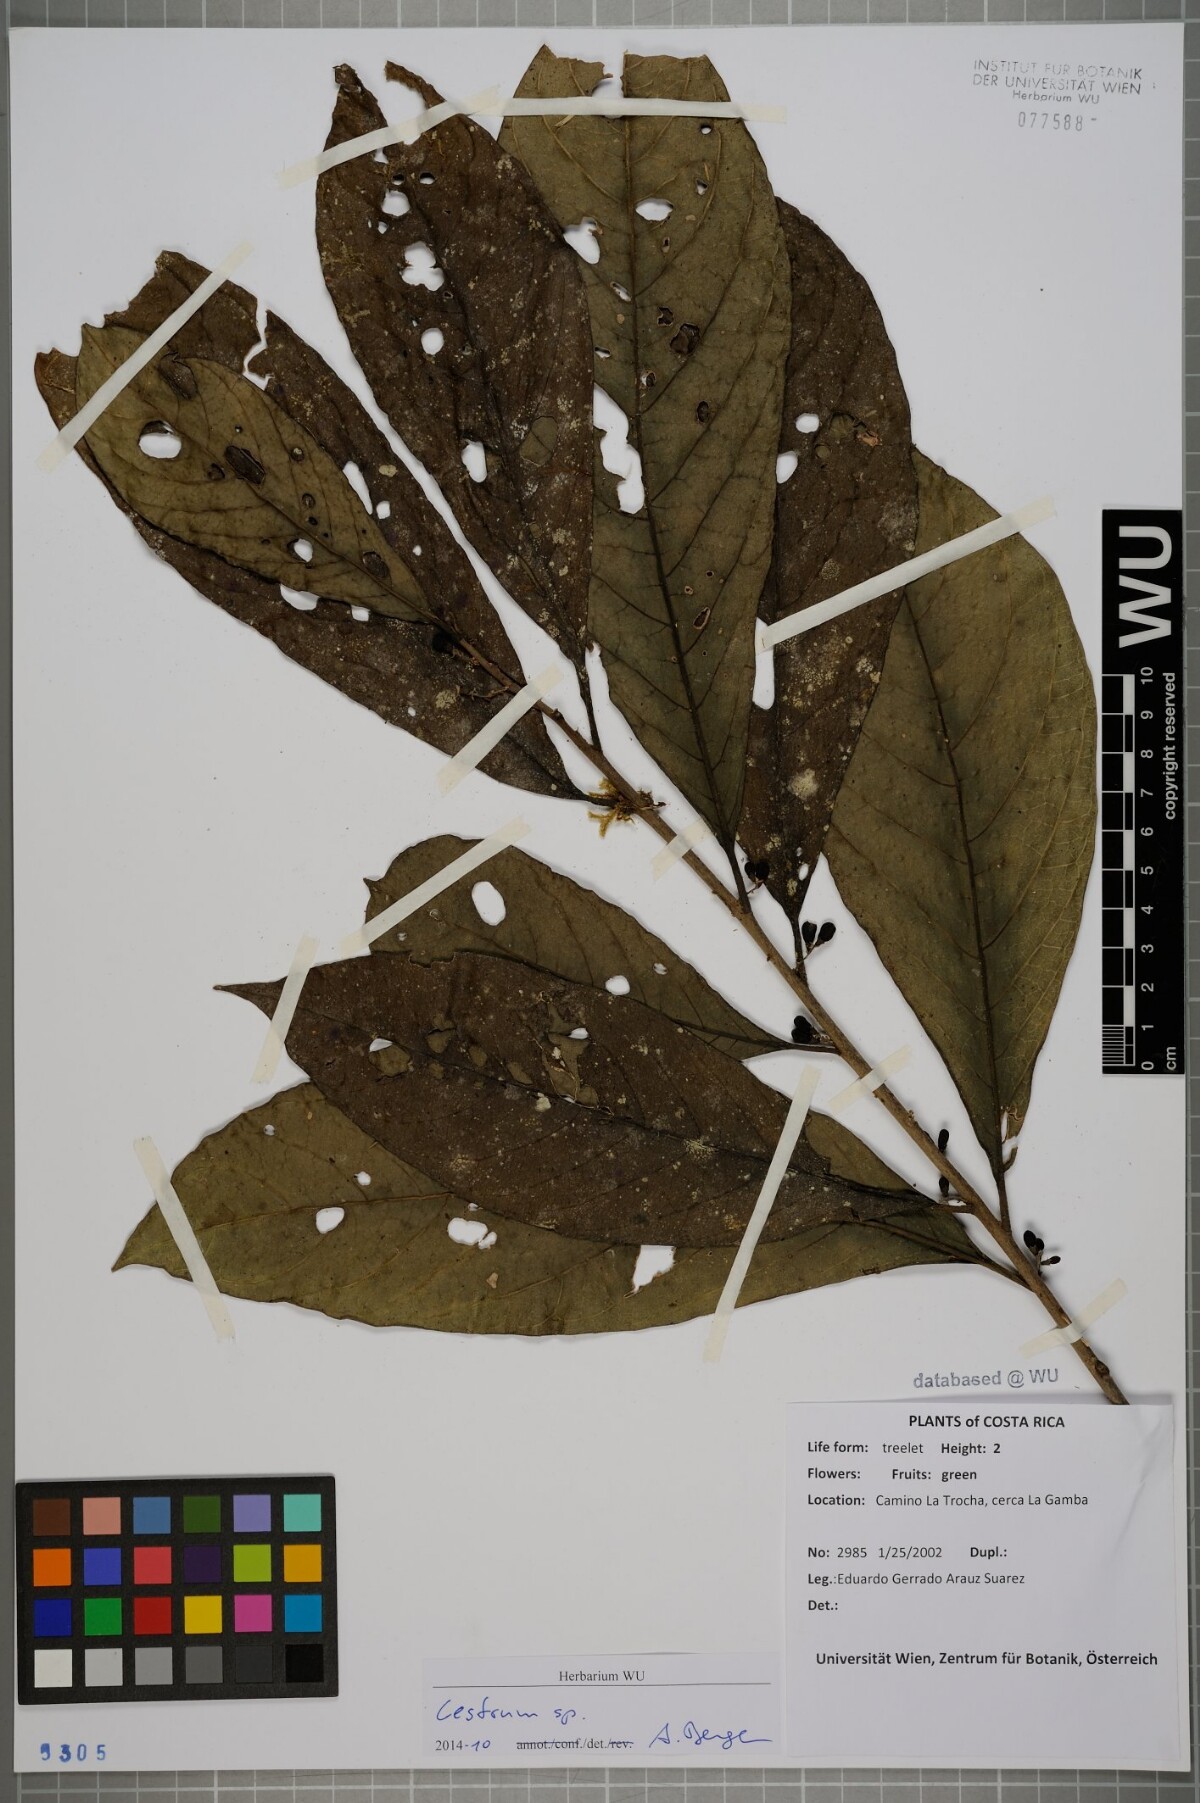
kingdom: Plantae
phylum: Tracheophyta
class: Magnoliopsida
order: Solanales
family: Solanaceae
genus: Cestrum
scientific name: Cestrum
